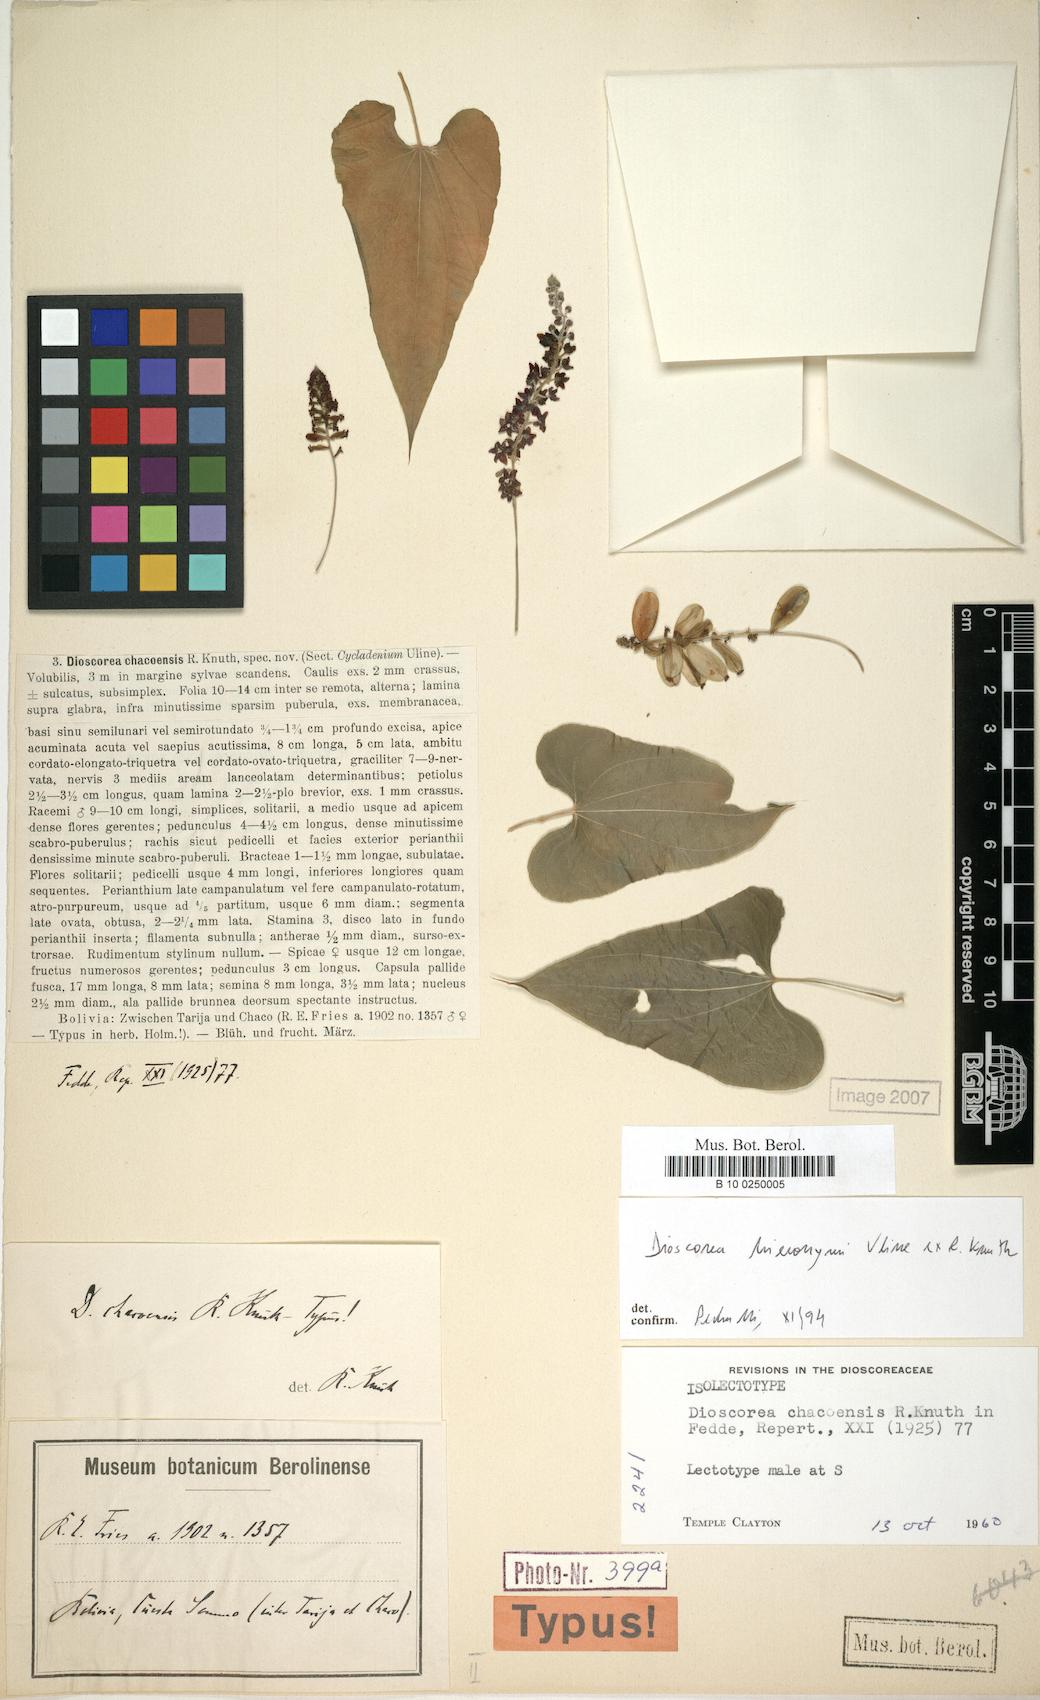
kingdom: Plantae
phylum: Tracheophyta
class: Liliopsida
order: Dioscoreales
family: Dioscoreaceae
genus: Dioscorea
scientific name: Dioscorea glomerulata
